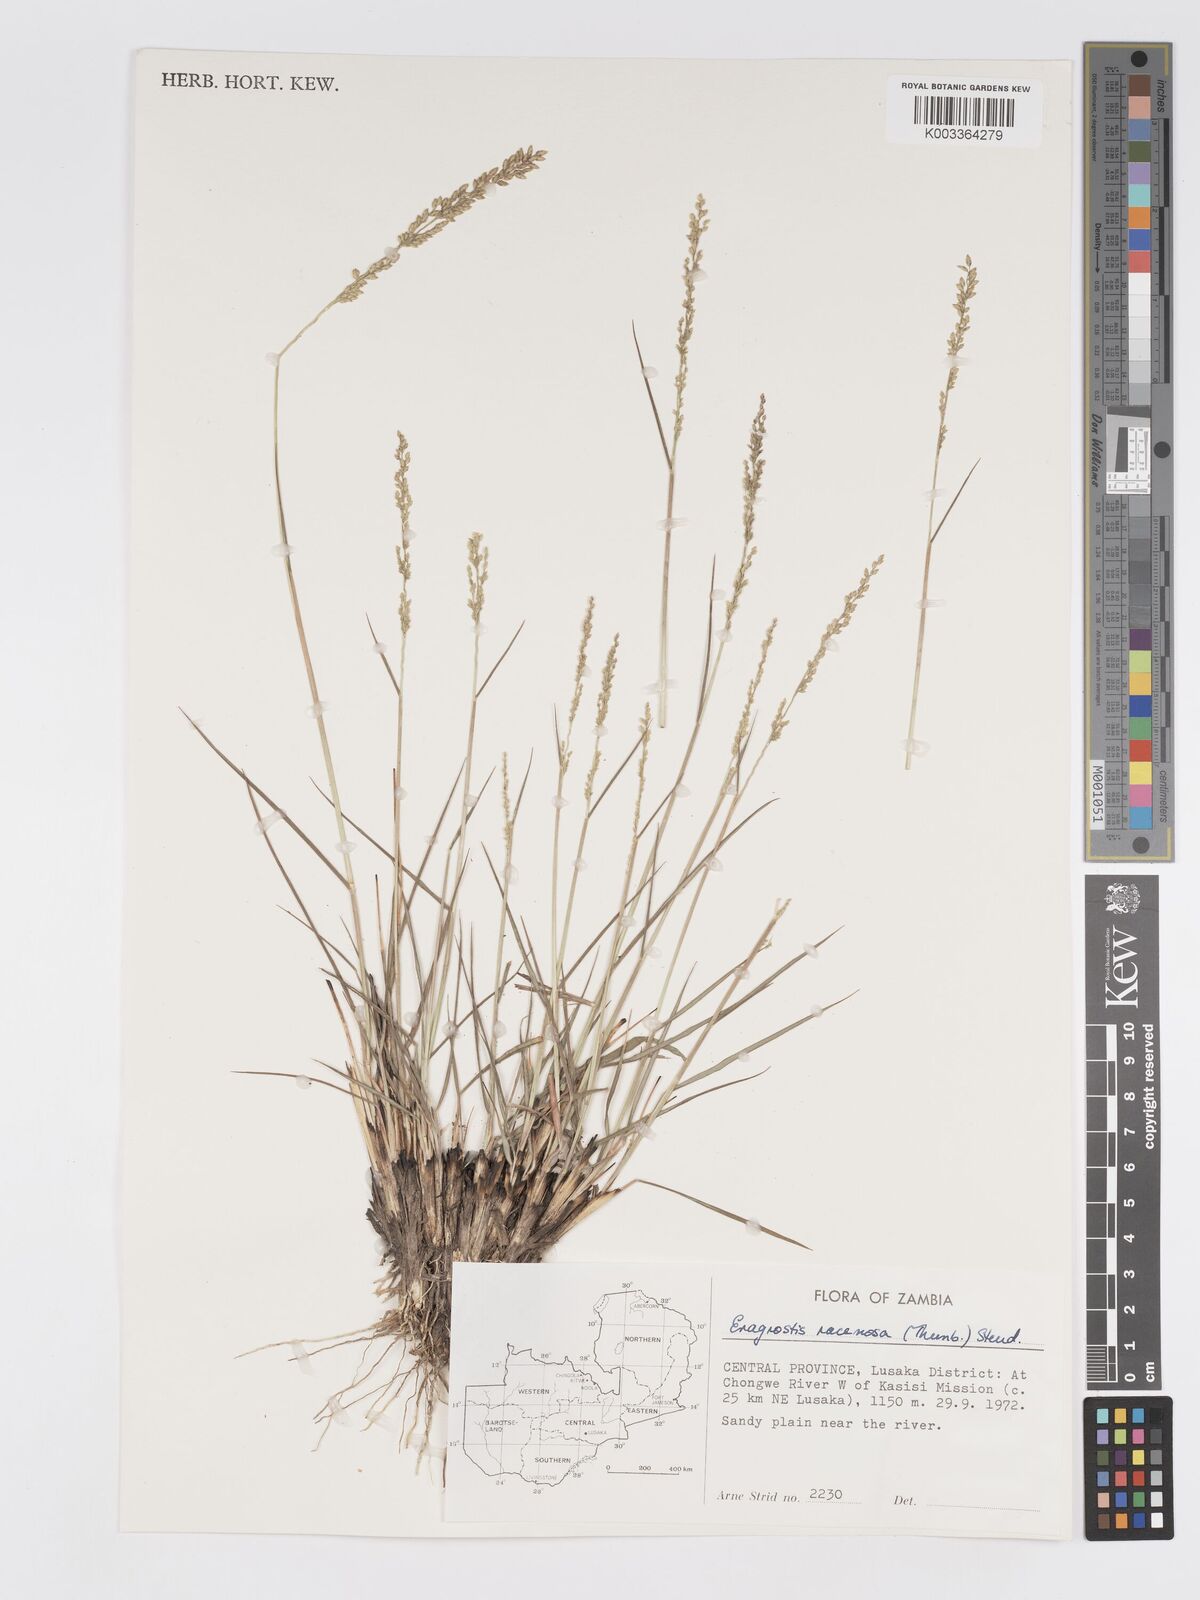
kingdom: Plantae
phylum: Tracheophyta
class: Liliopsida
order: Poales
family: Poaceae
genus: Eragrostis
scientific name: Eragrostis racemosa
